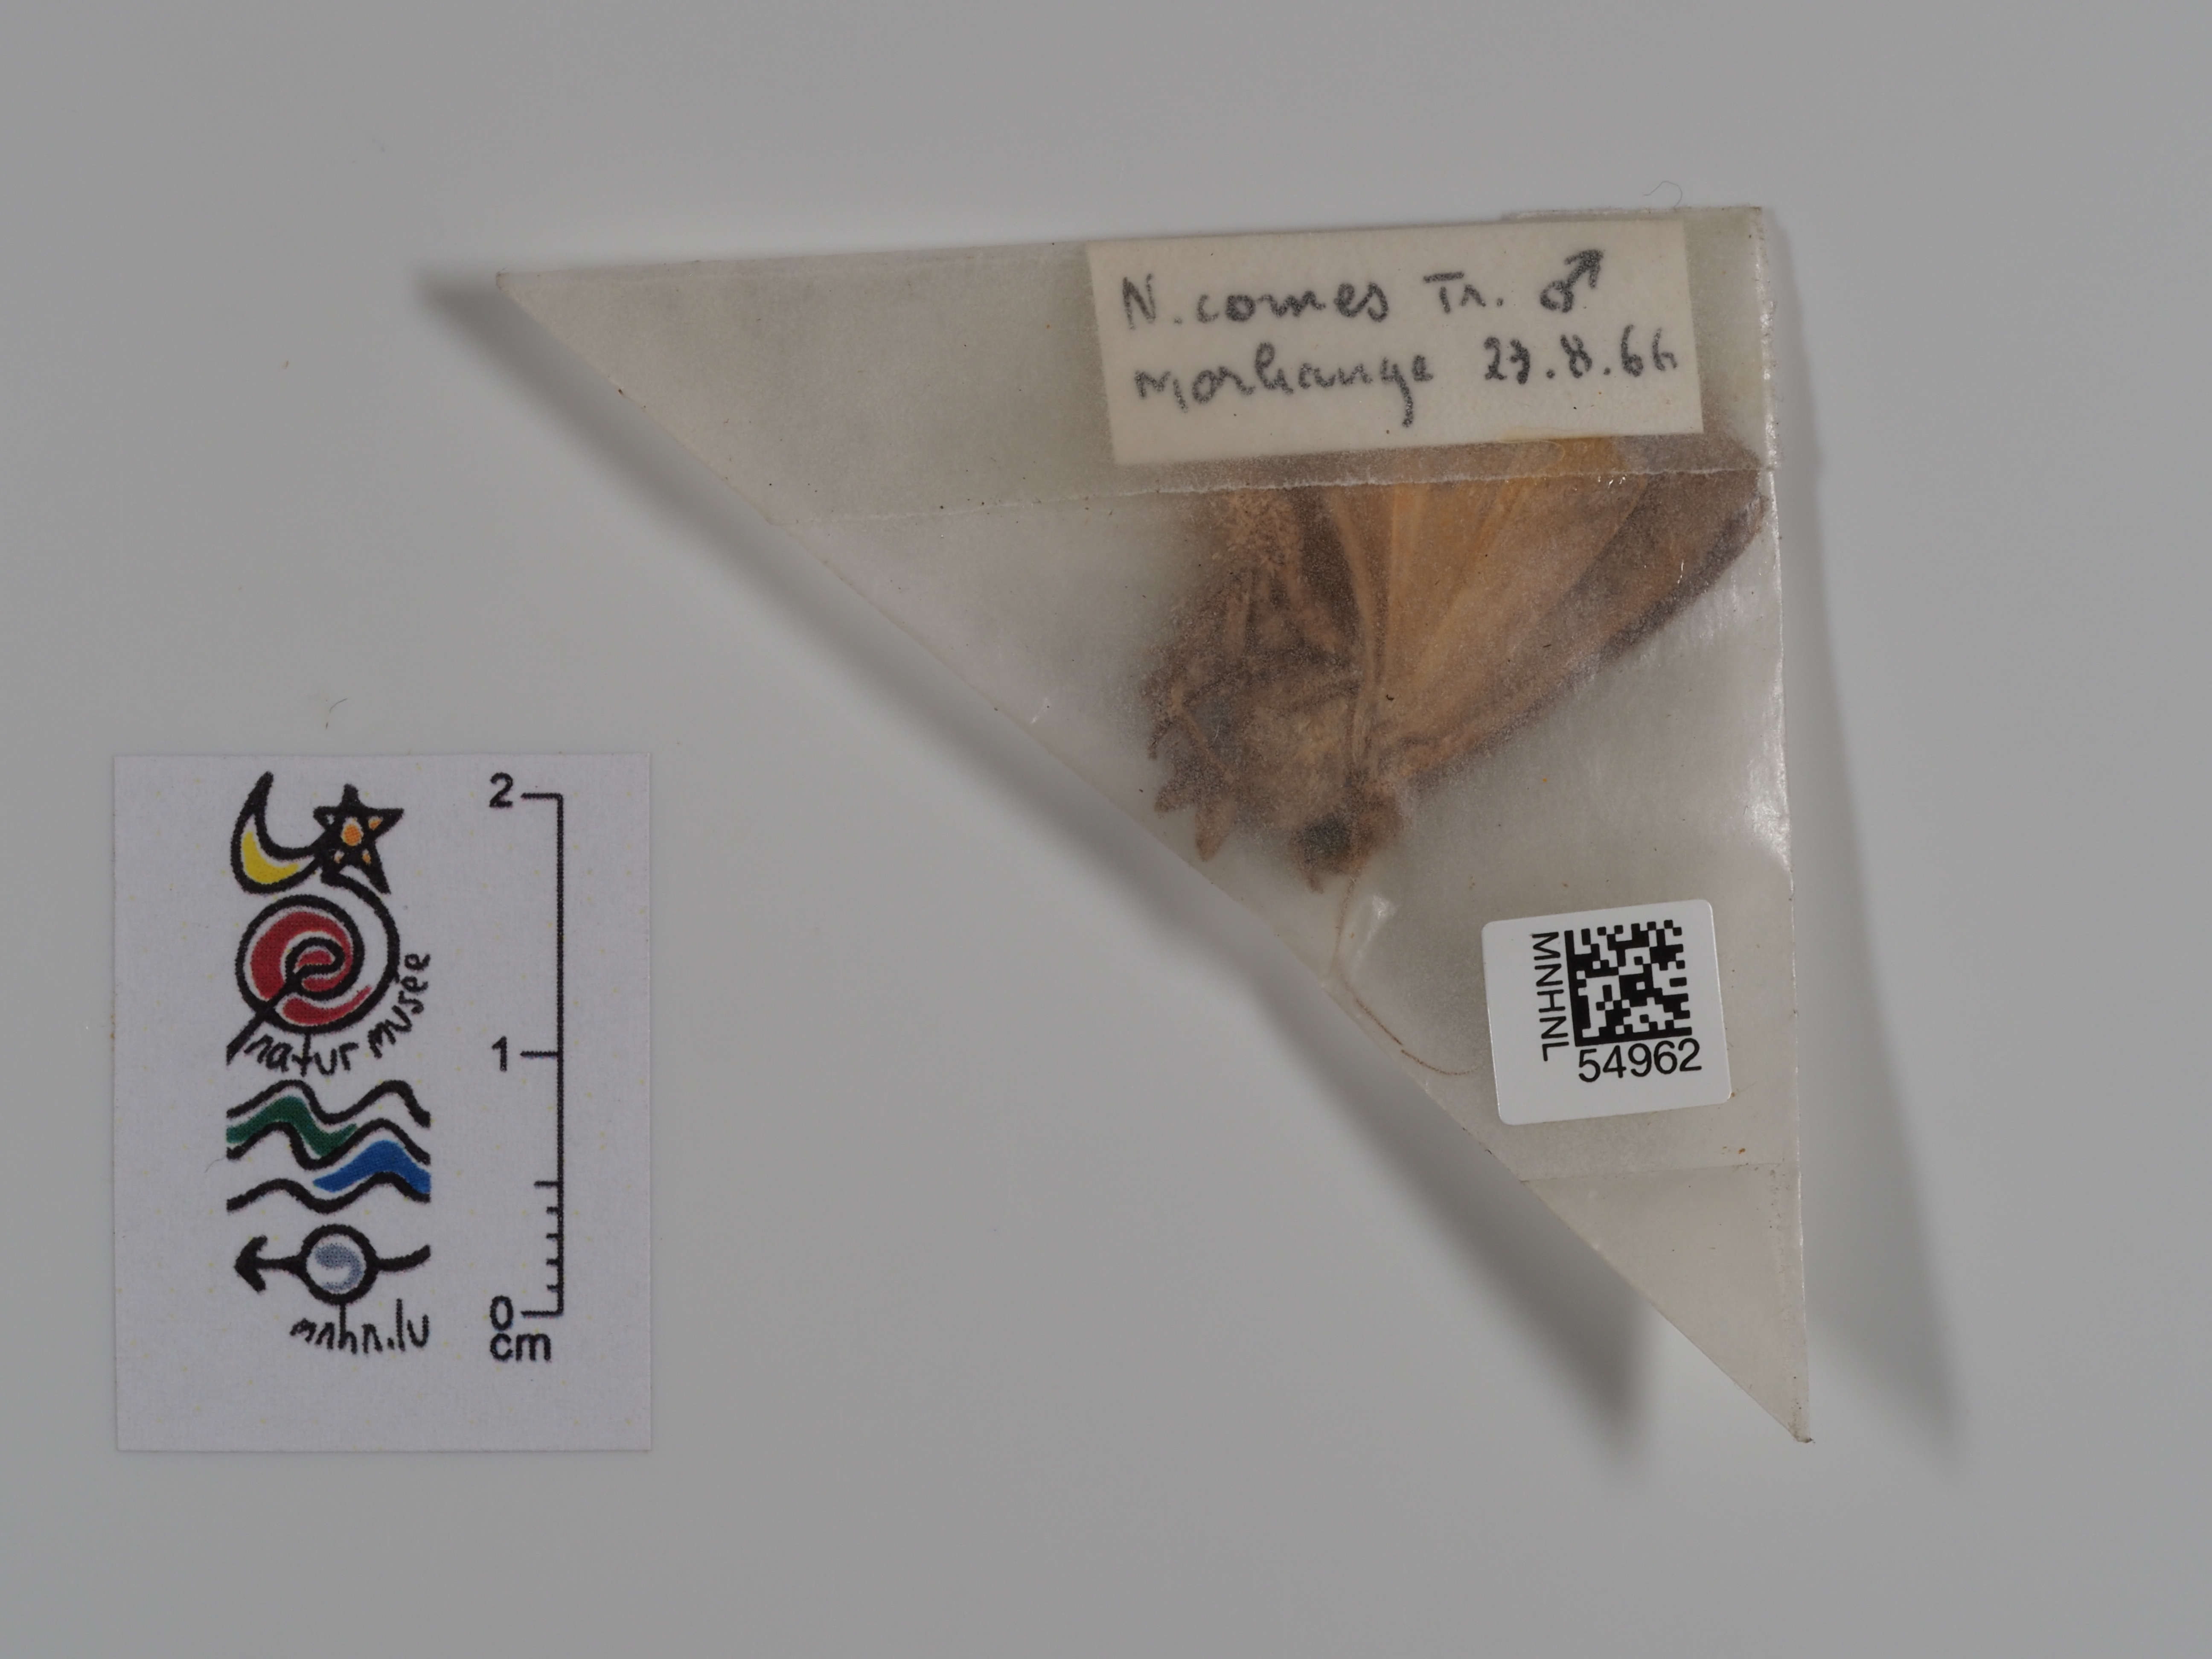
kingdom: Animalia
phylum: Arthropoda
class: Insecta
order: Lepidoptera
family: Noctuidae
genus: Noctua
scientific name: Noctua comes
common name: Lesser yellow underwing
